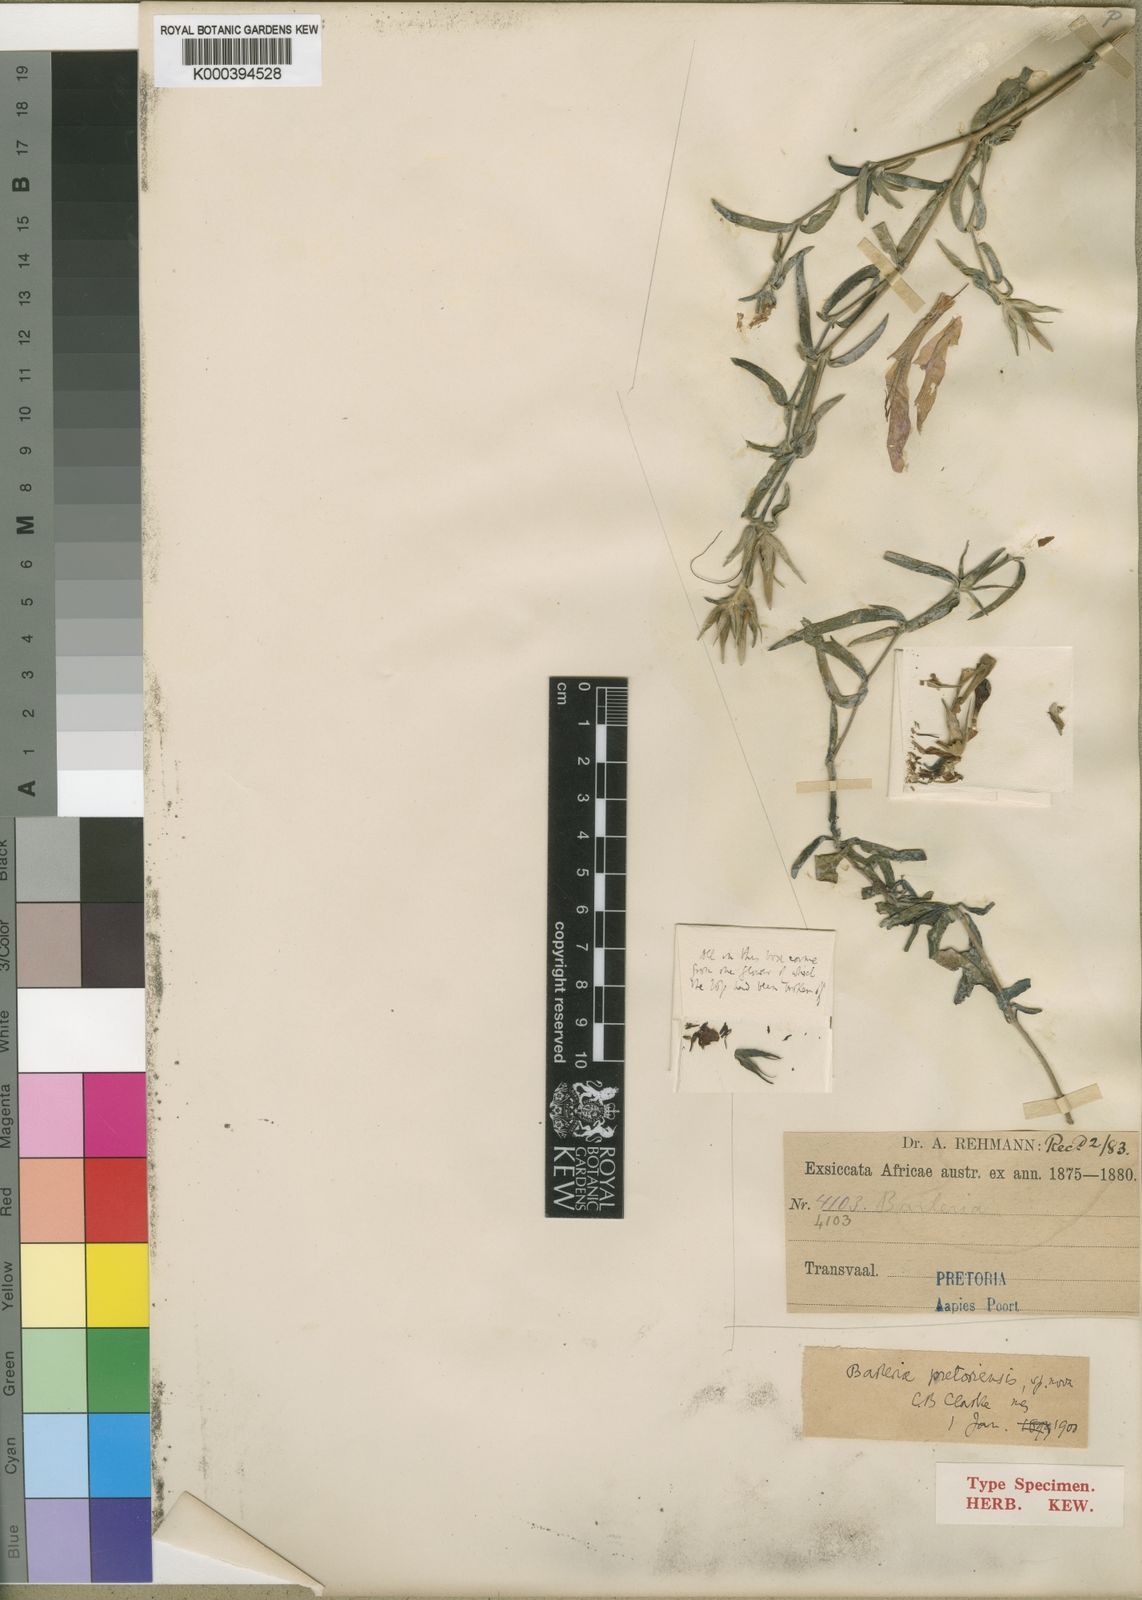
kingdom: Plantae
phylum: Tracheophyta
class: Magnoliopsida
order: Lamiales
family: Acanthaceae
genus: Barleria
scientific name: Barleria pretoriensis
